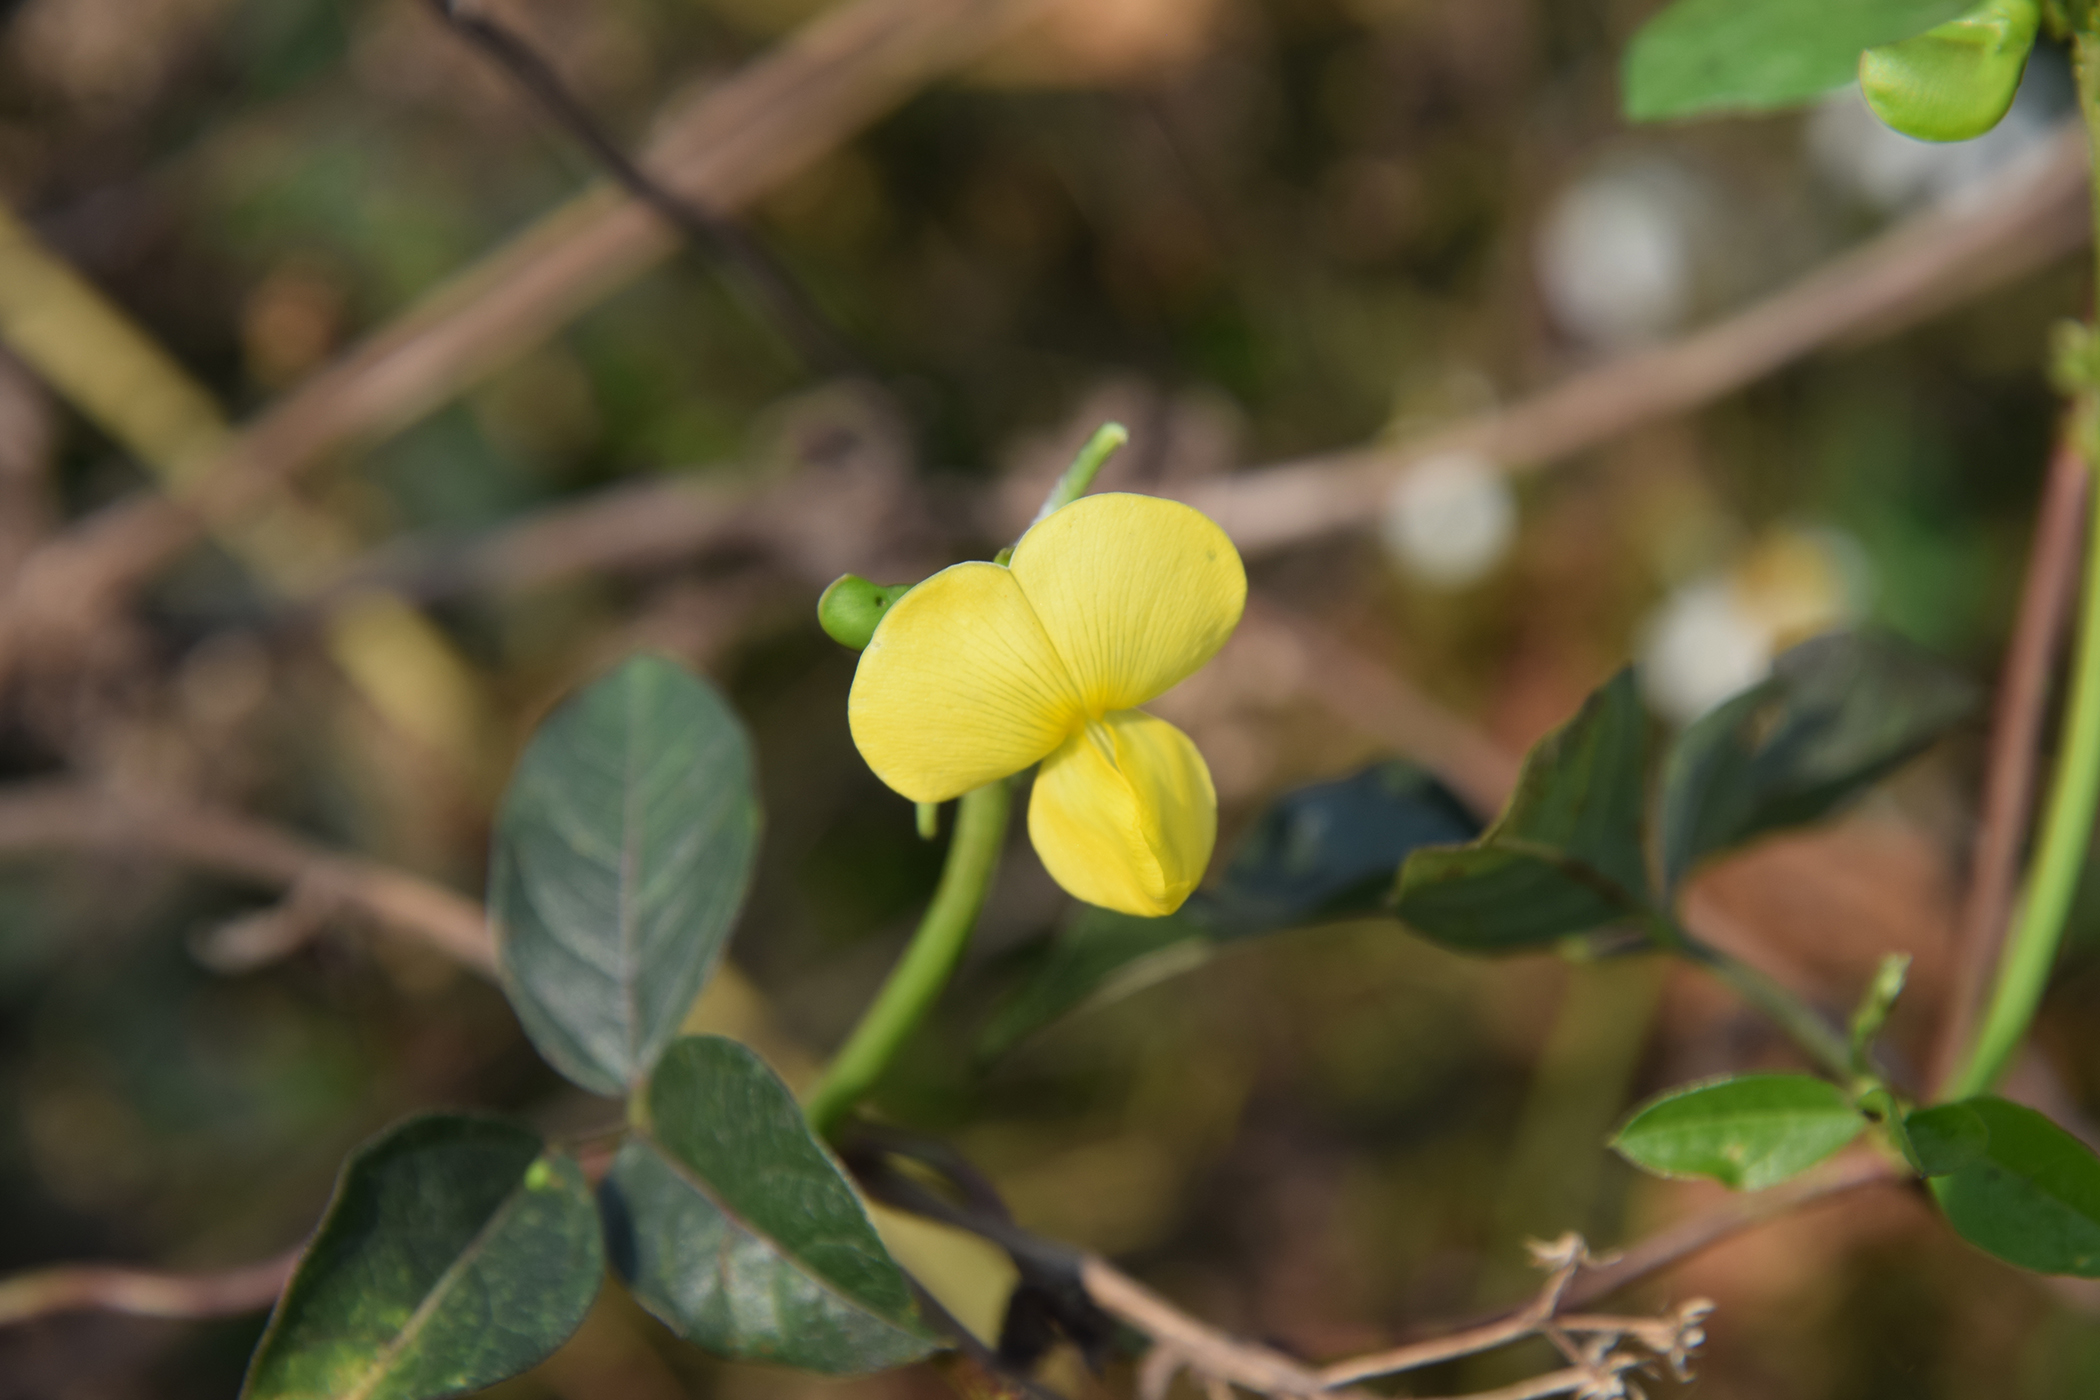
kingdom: Plantae
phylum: Tracheophyta
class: Magnoliopsida
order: Fabales
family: Fabaceae
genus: Vigna
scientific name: Vigna luteola
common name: Hairypod cowpea
